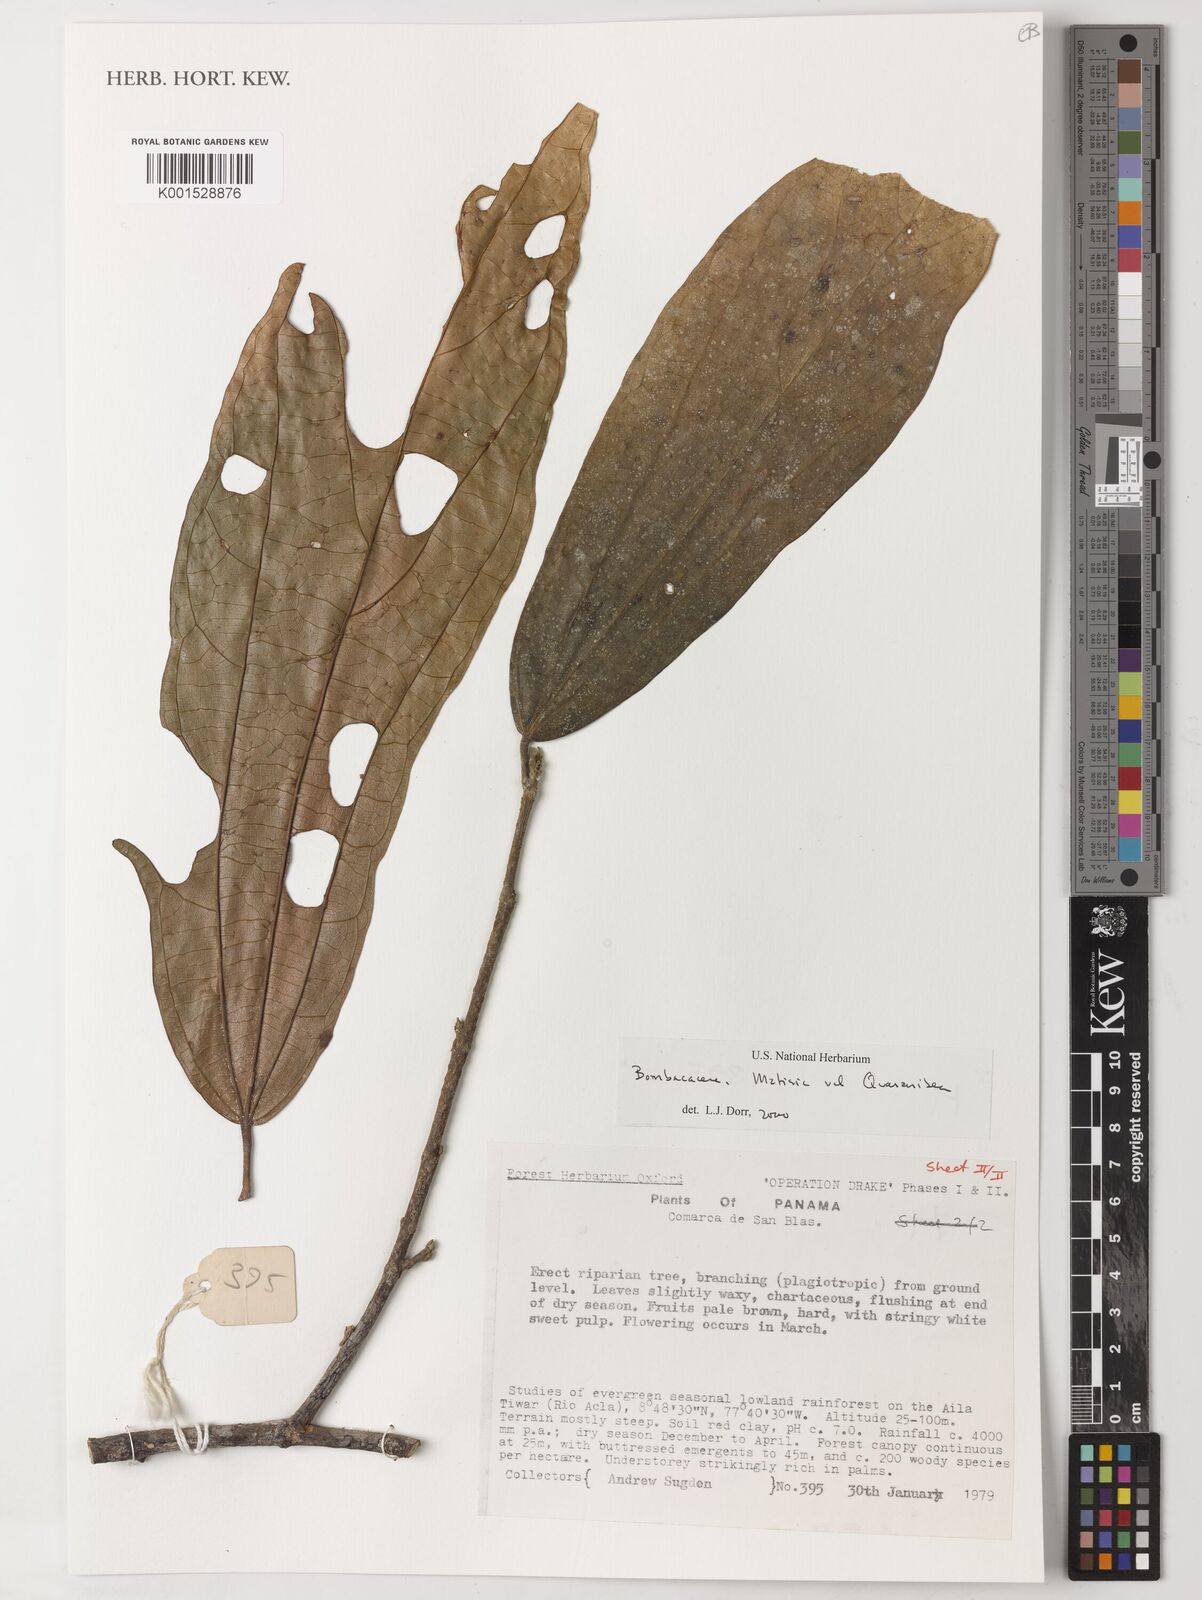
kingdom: Plantae
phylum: Tracheophyta
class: Magnoliopsida
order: Malvales
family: Malvaceae
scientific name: Malvaceae
